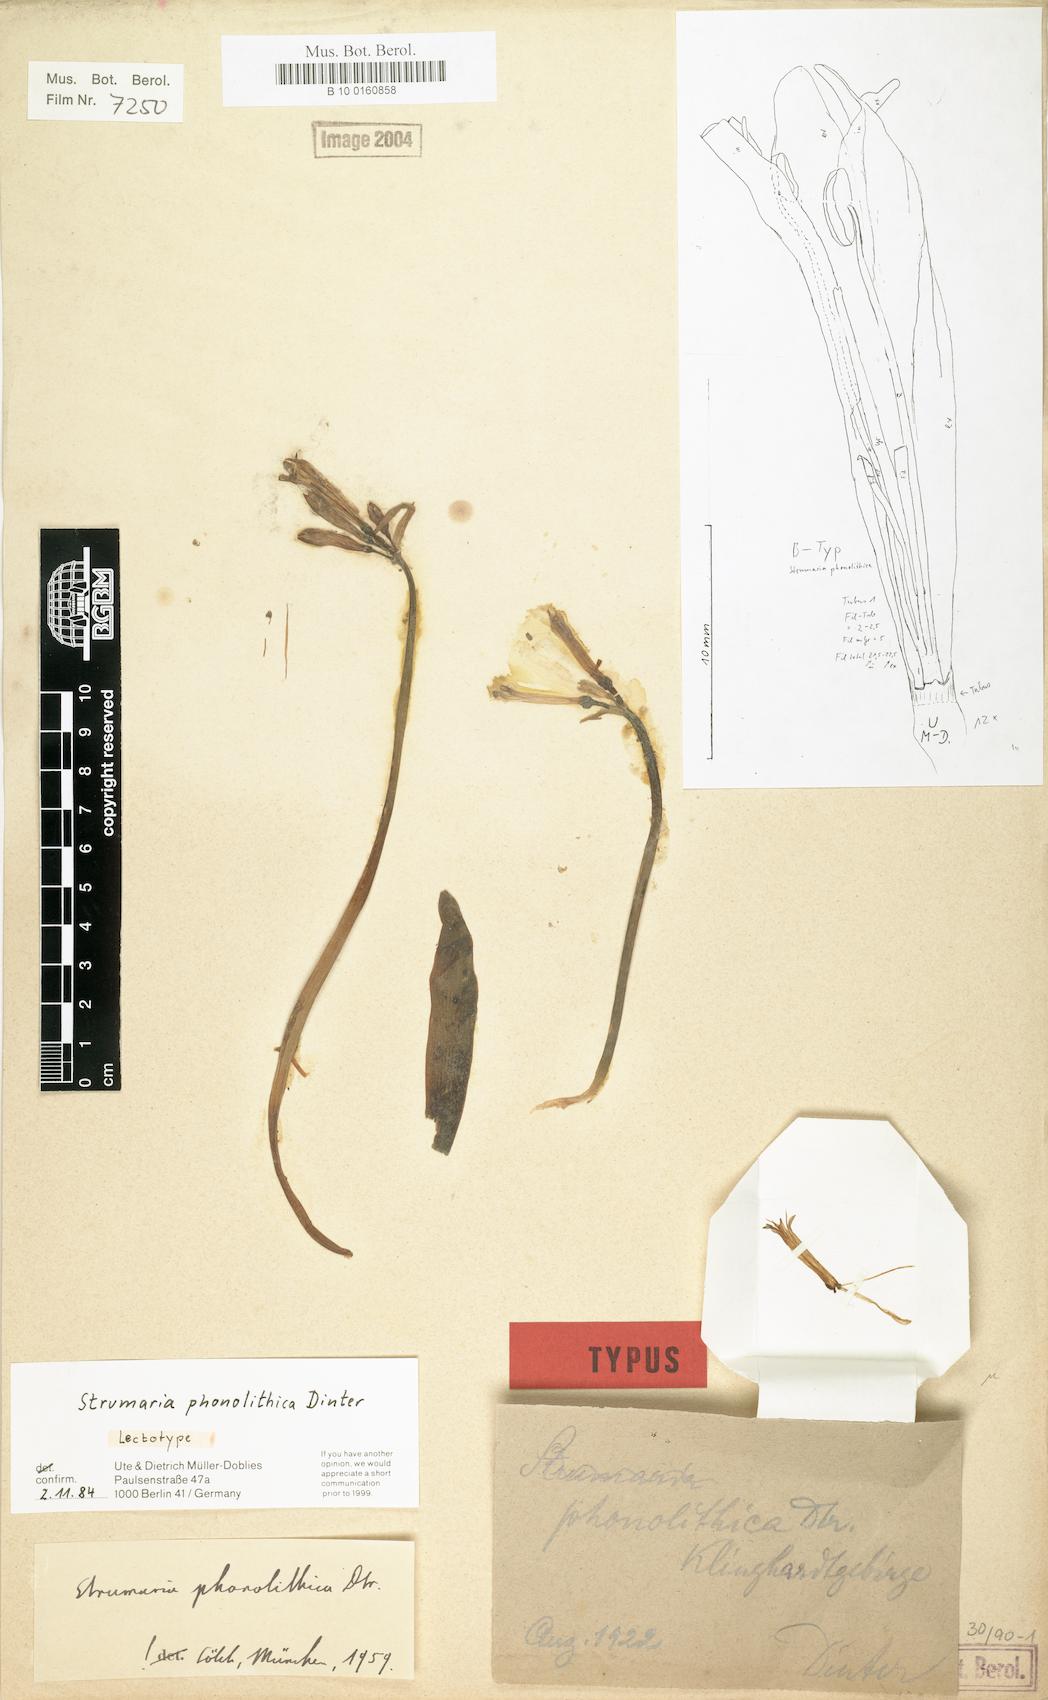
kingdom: Plantae
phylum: Tracheophyta
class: Liliopsida
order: Asparagales
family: Amaryllidaceae
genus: Strumaria
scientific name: Strumaria phonolithica
